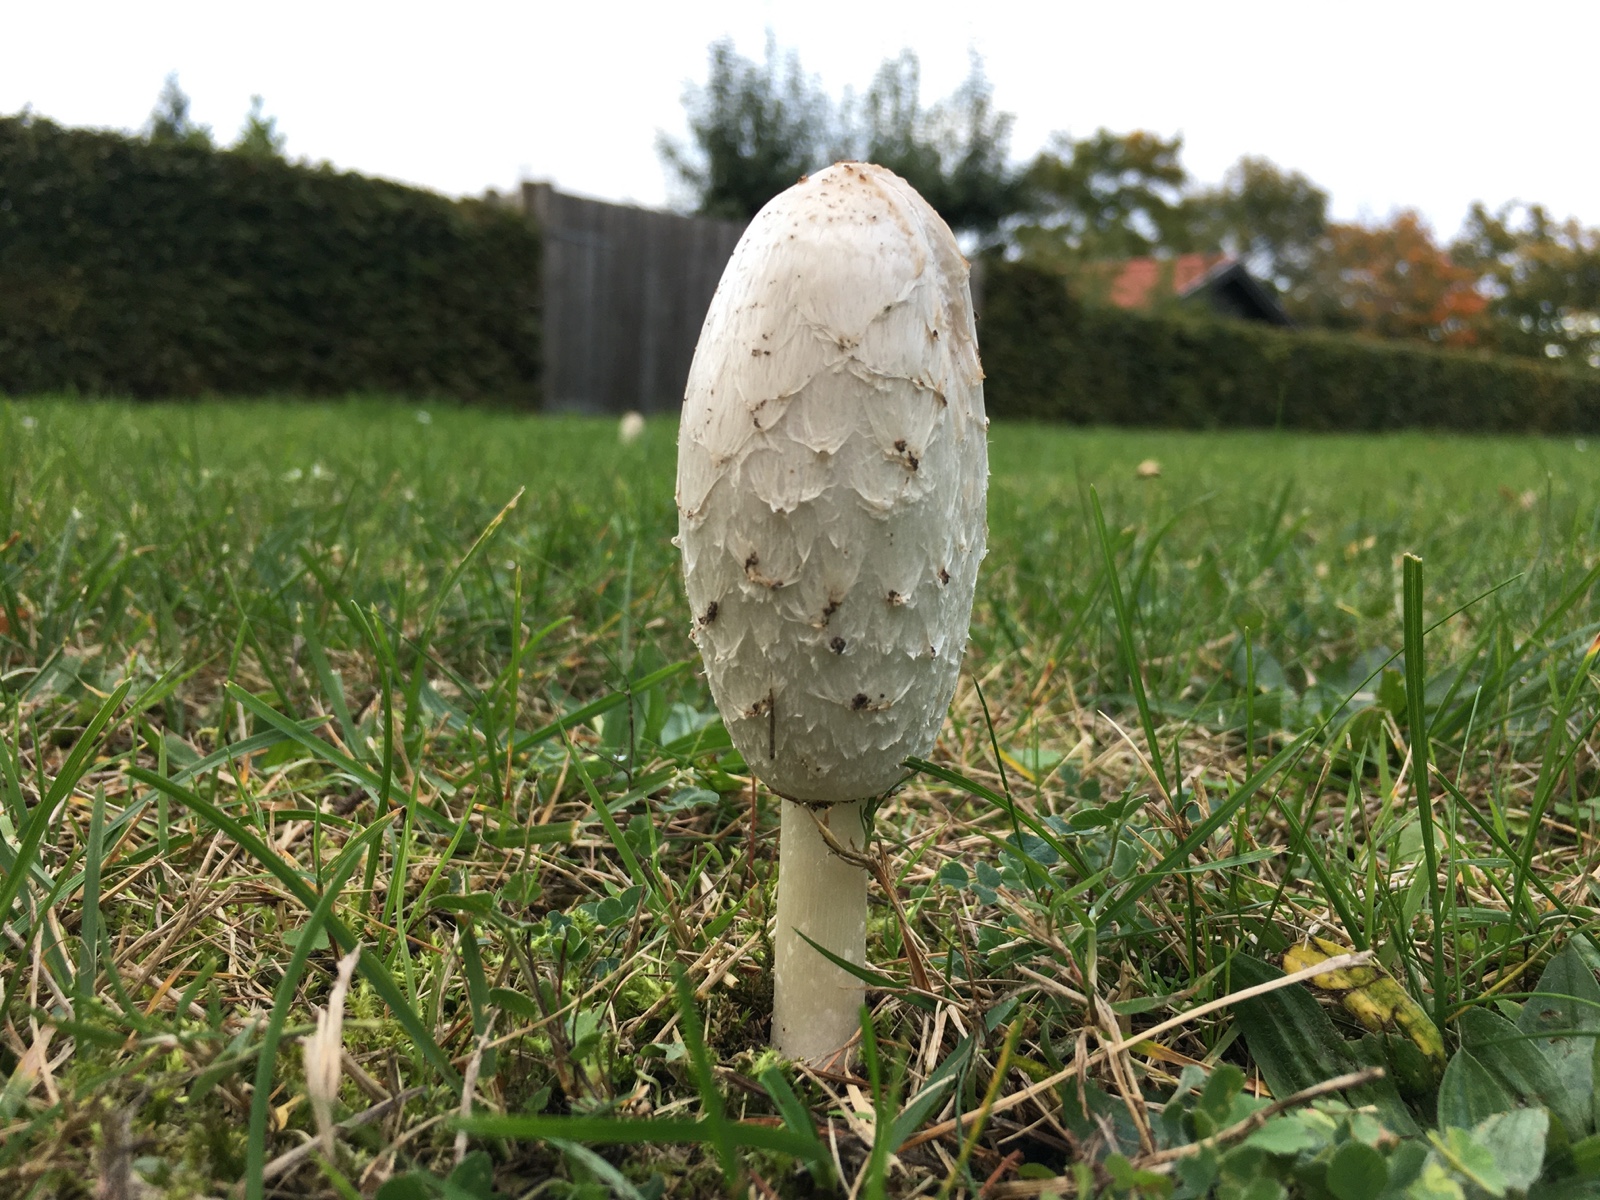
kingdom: Fungi
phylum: Basidiomycota
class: Agaricomycetes
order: Agaricales
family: Agaricaceae
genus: Coprinus
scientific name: Coprinus comatus
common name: stor parykhat
